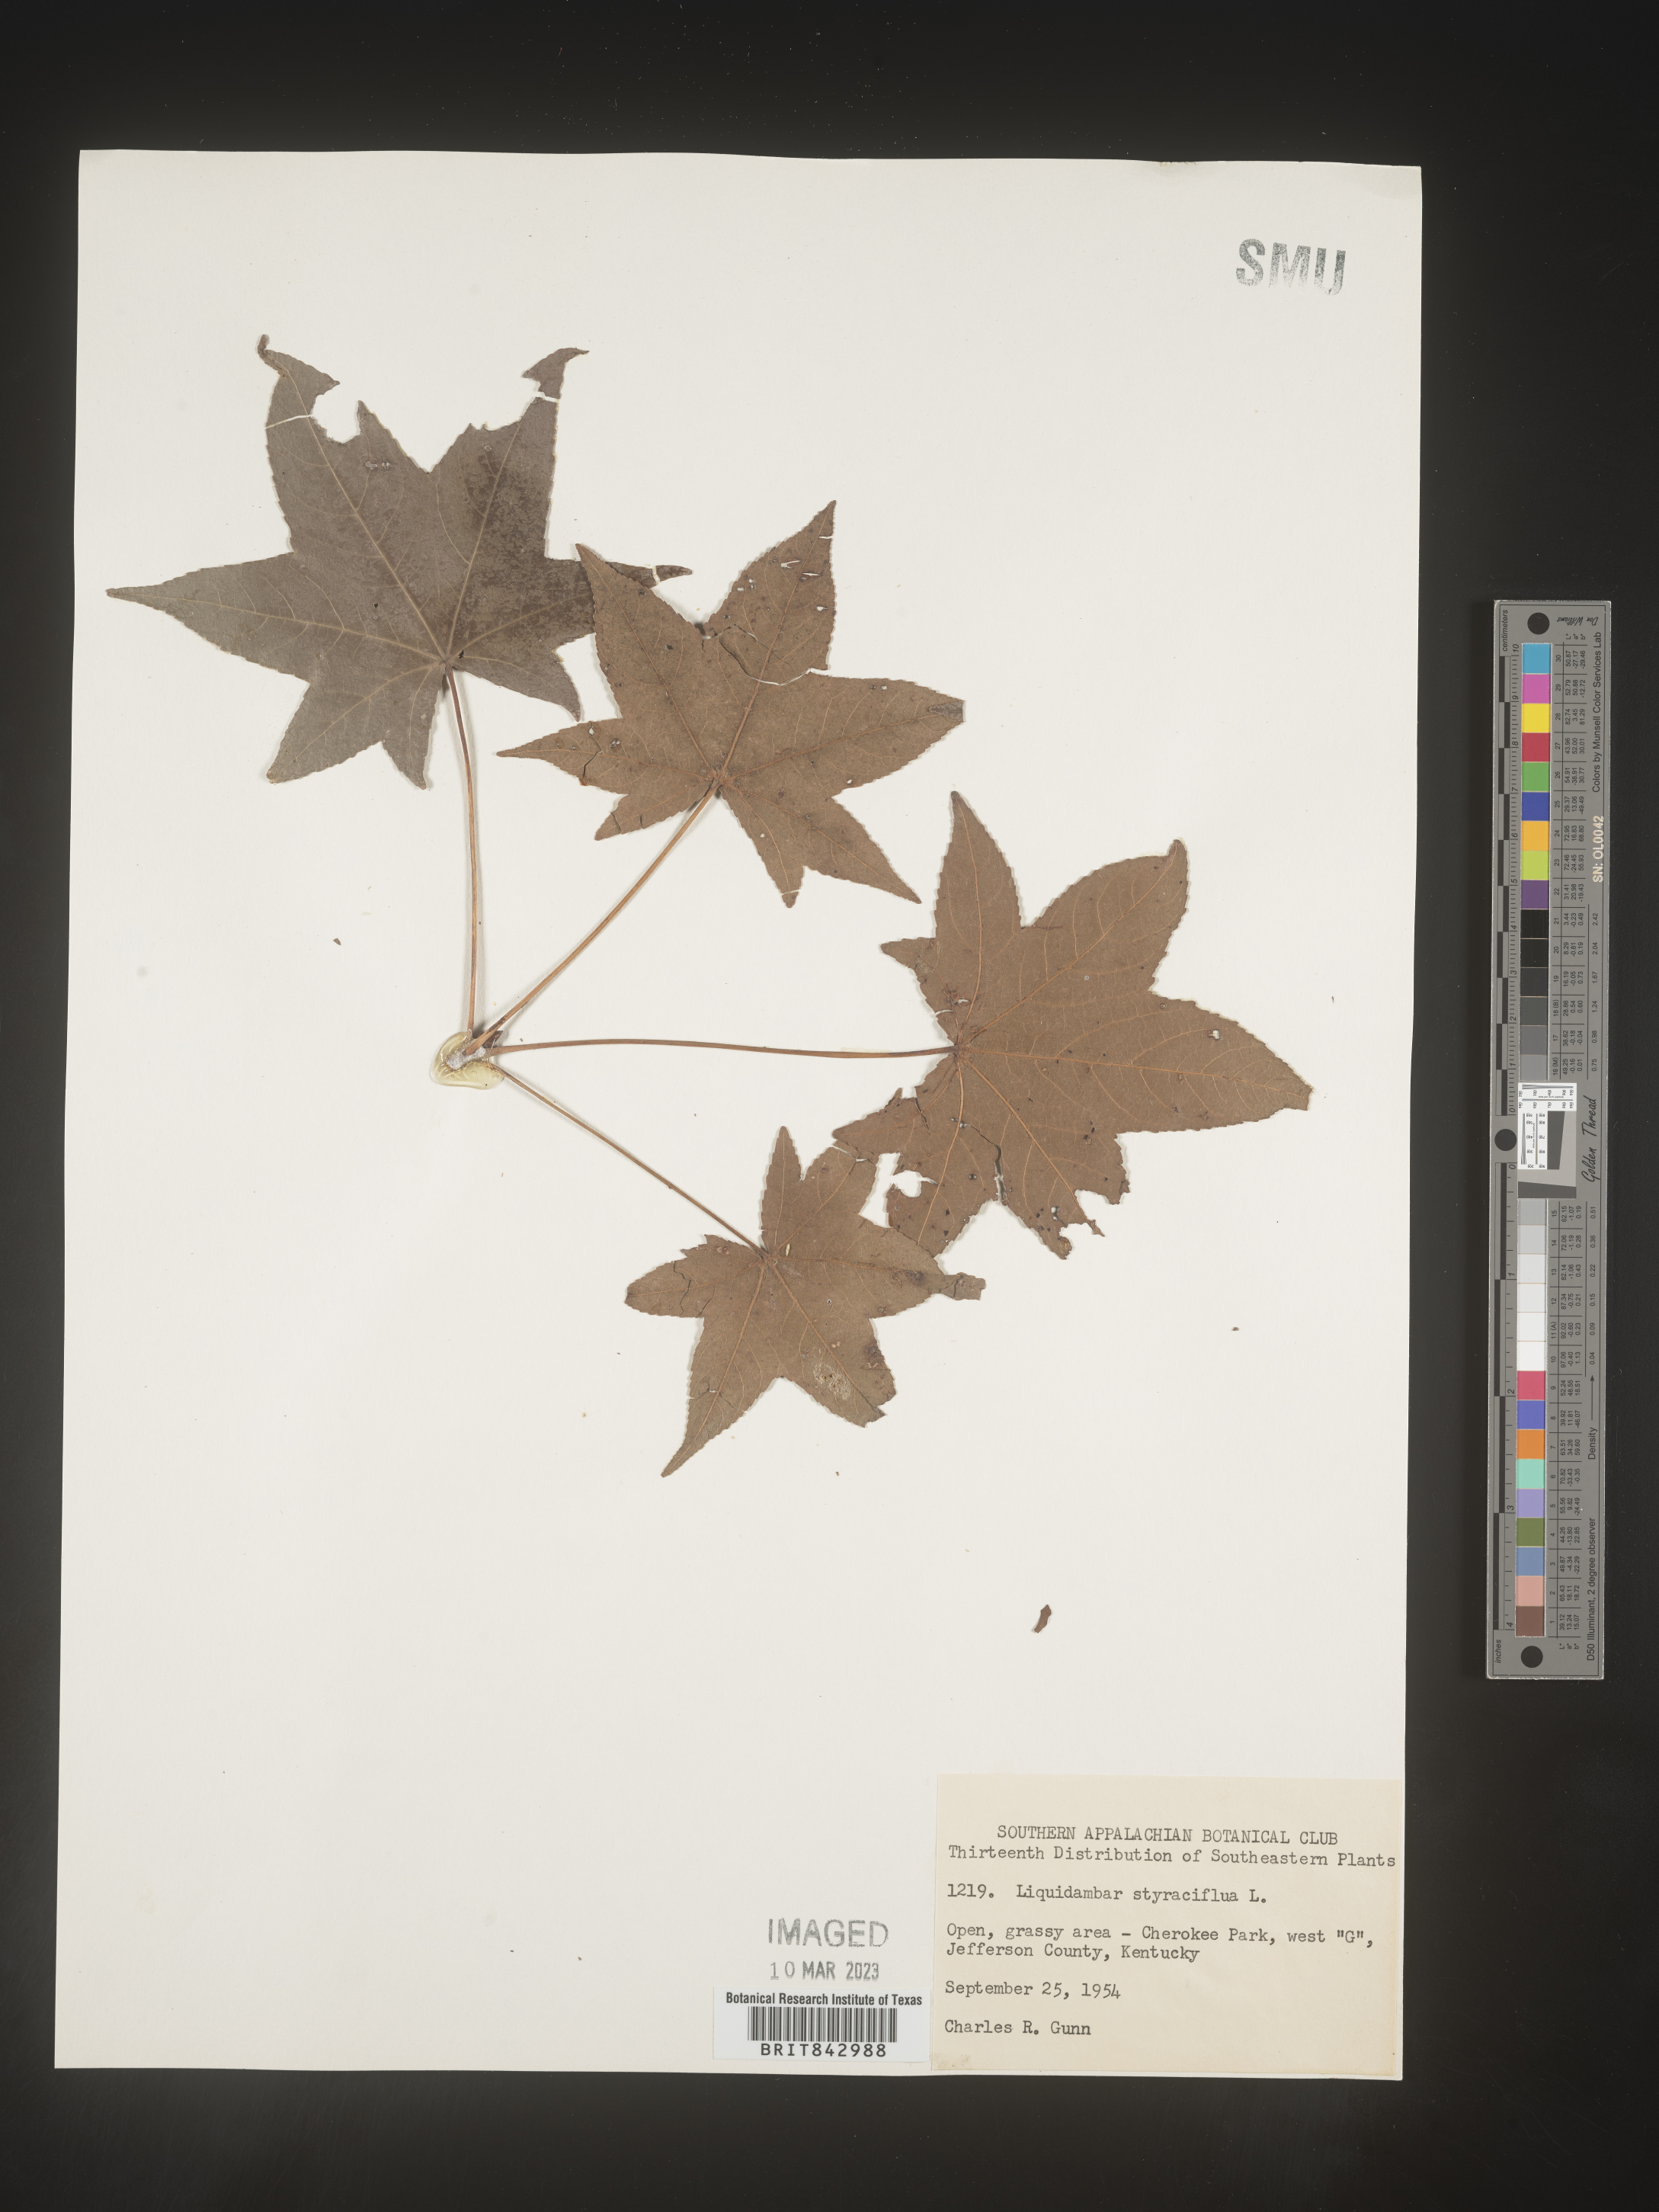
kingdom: Plantae
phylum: Tracheophyta
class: Magnoliopsida
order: Saxifragales
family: Altingiaceae
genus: Liquidambar
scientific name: Liquidambar
